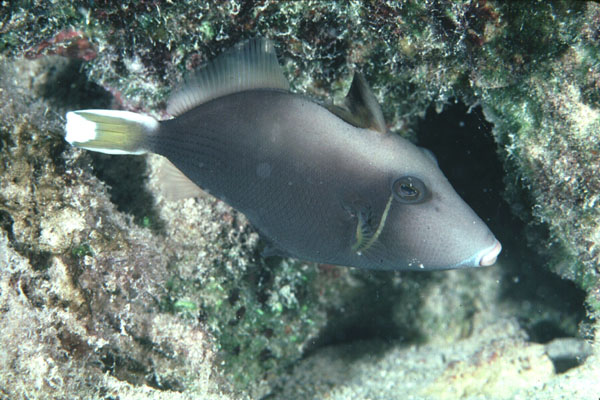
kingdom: Animalia
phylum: Chordata
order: Tetraodontiformes
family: Balistidae
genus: Sufflamen
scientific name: Sufflamen chrysopterum
